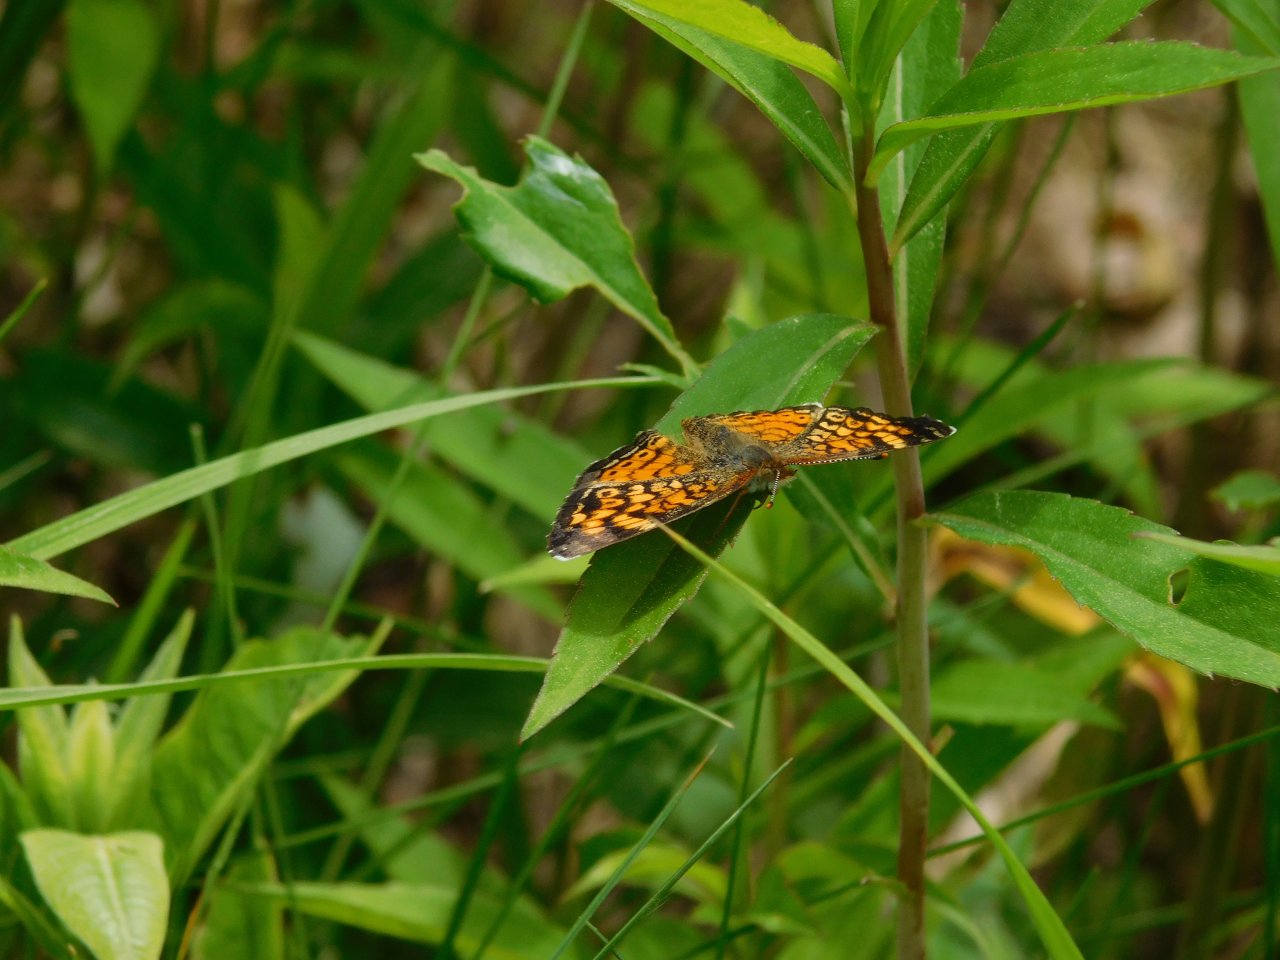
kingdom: Animalia
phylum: Arthropoda
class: Insecta
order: Lepidoptera
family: Nymphalidae
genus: Phyciodes
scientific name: Phyciodes tharos
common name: Northern Crescent
